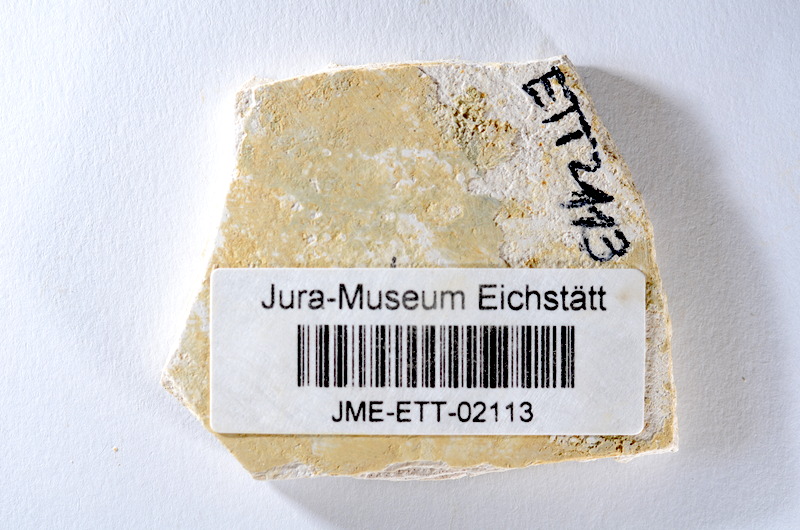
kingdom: Animalia
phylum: Chordata
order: Salmoniformes
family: Orthogonikleithridae
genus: Orthogonikleithrus
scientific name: Orthogonikleithrus hoelli
